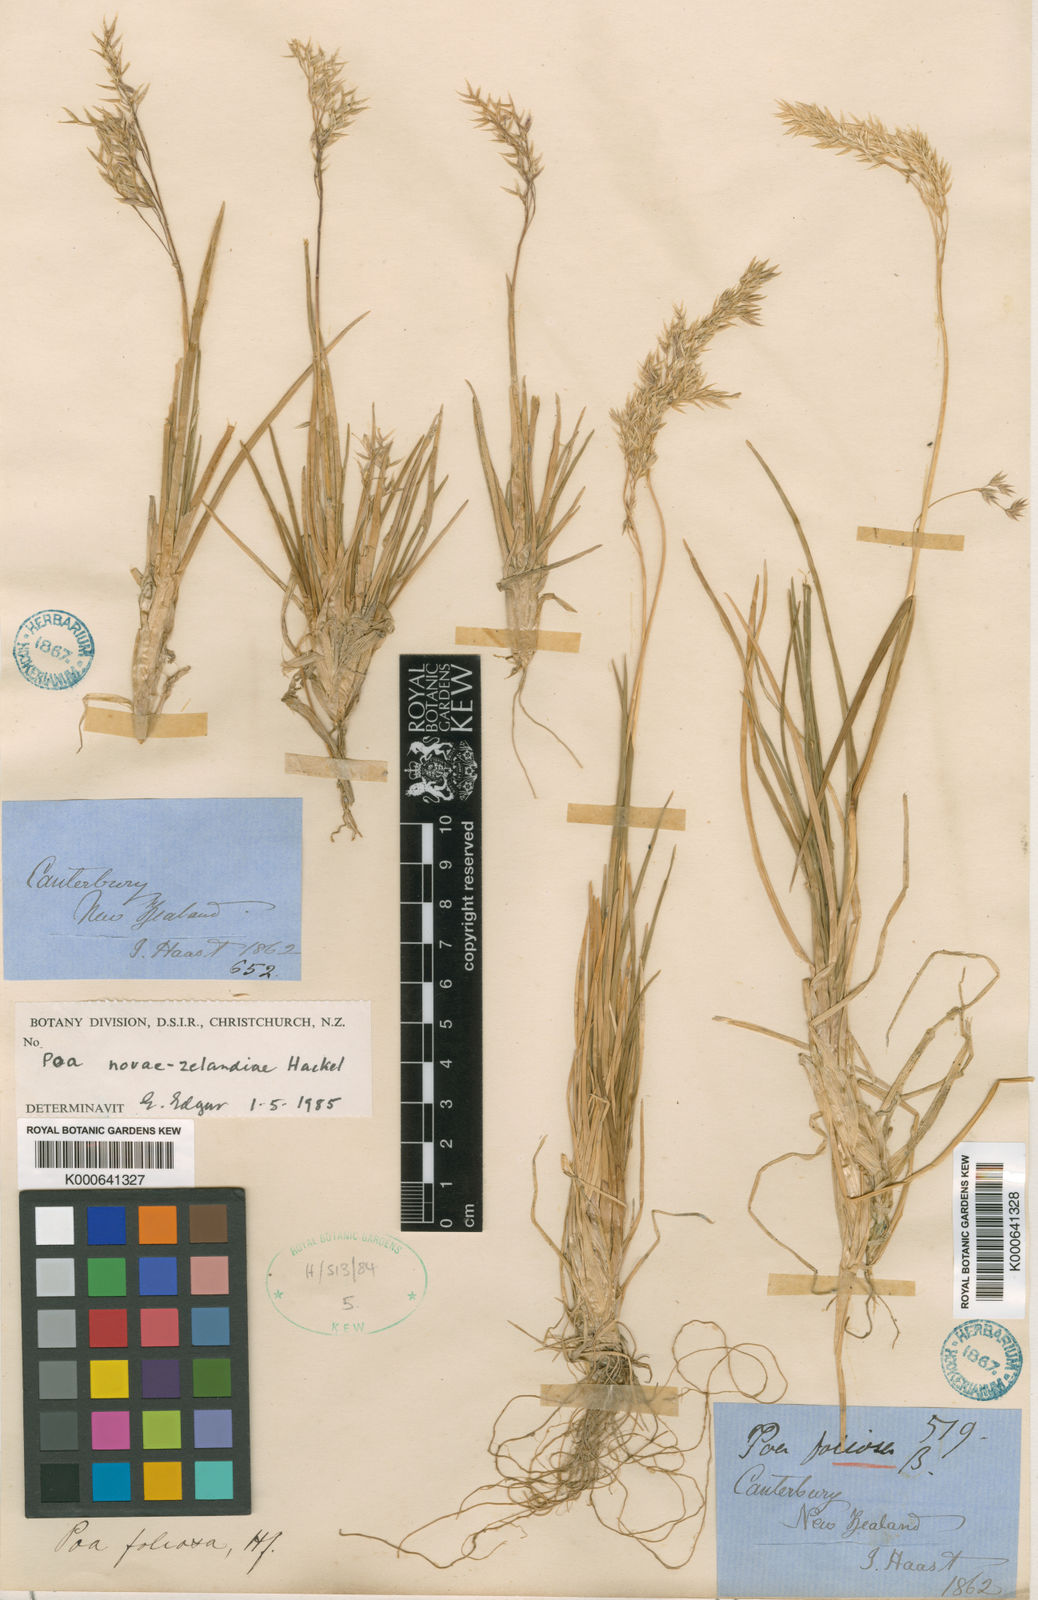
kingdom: Plantae
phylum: Tracheophyta
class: Liliopsida
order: Poales
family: Poaceae
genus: Poa
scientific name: Poa novae-zelandiae
